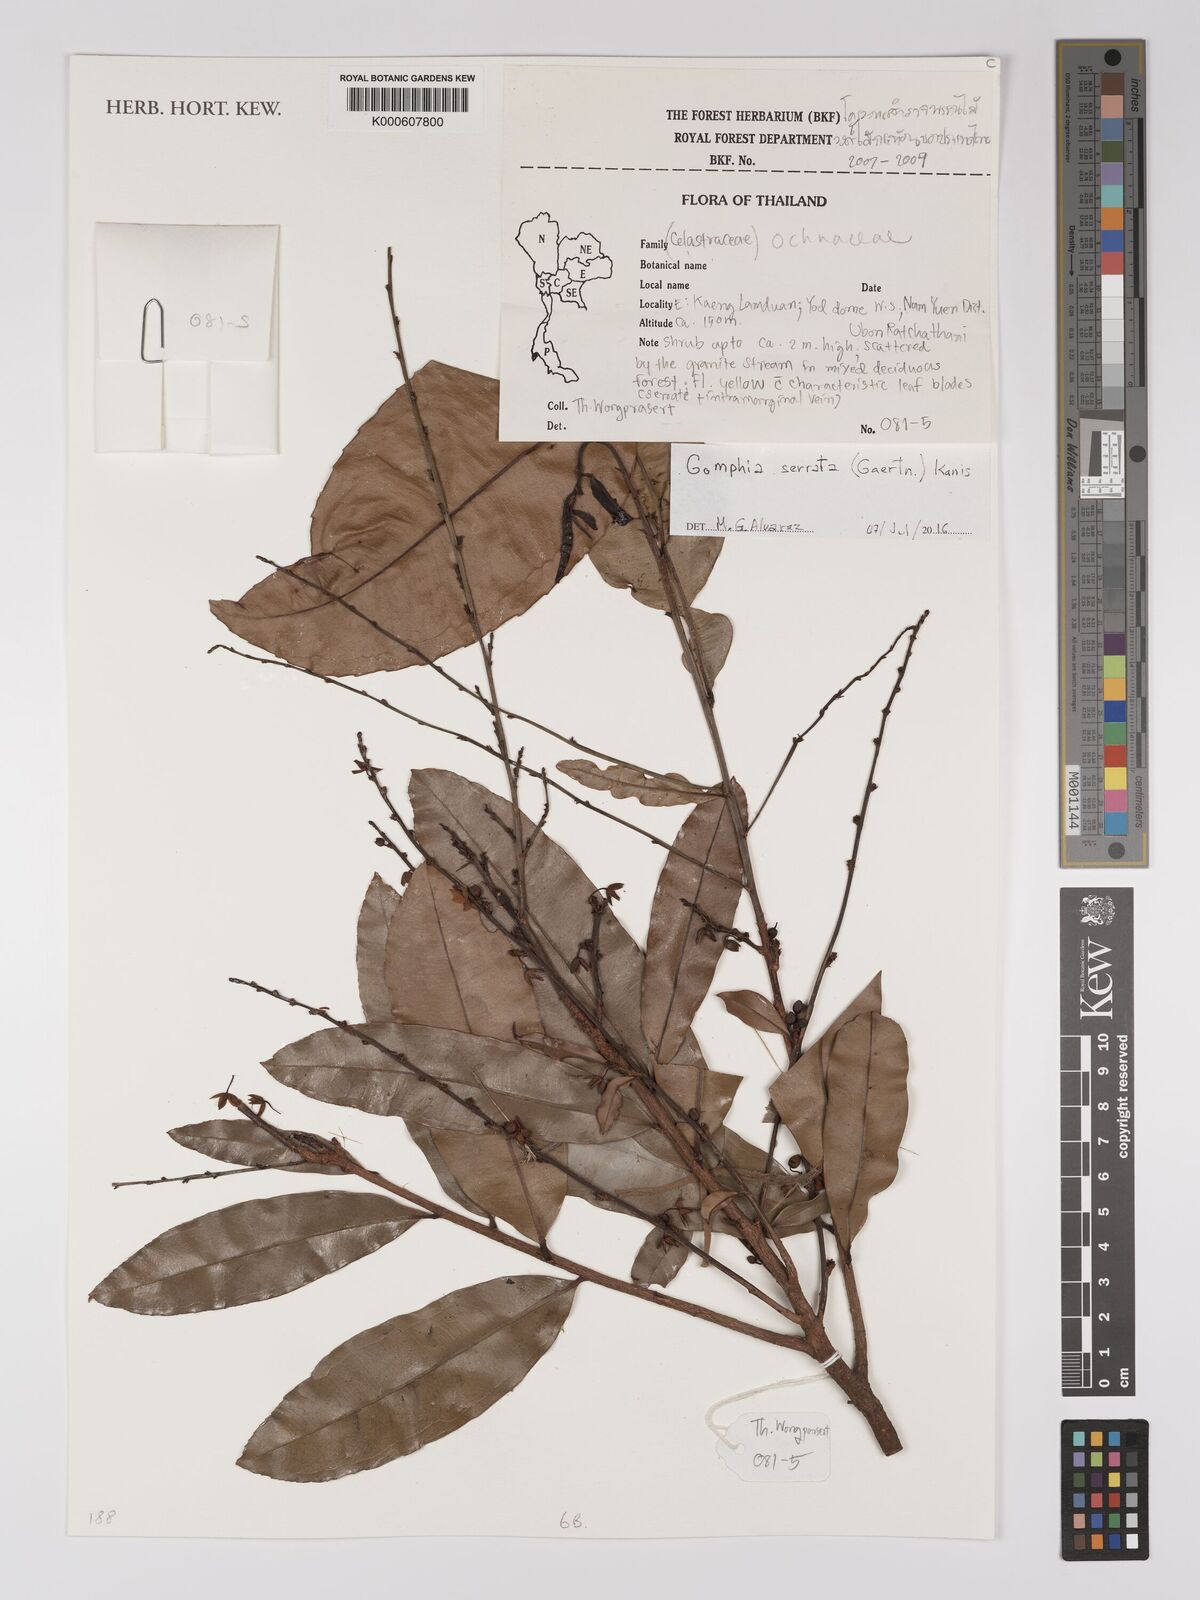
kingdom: Plantae
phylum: Tracheophyta
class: Magnoliopsida
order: Malpighiales
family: Ochnaceae
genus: Gomphia
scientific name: Gomphia serrata
